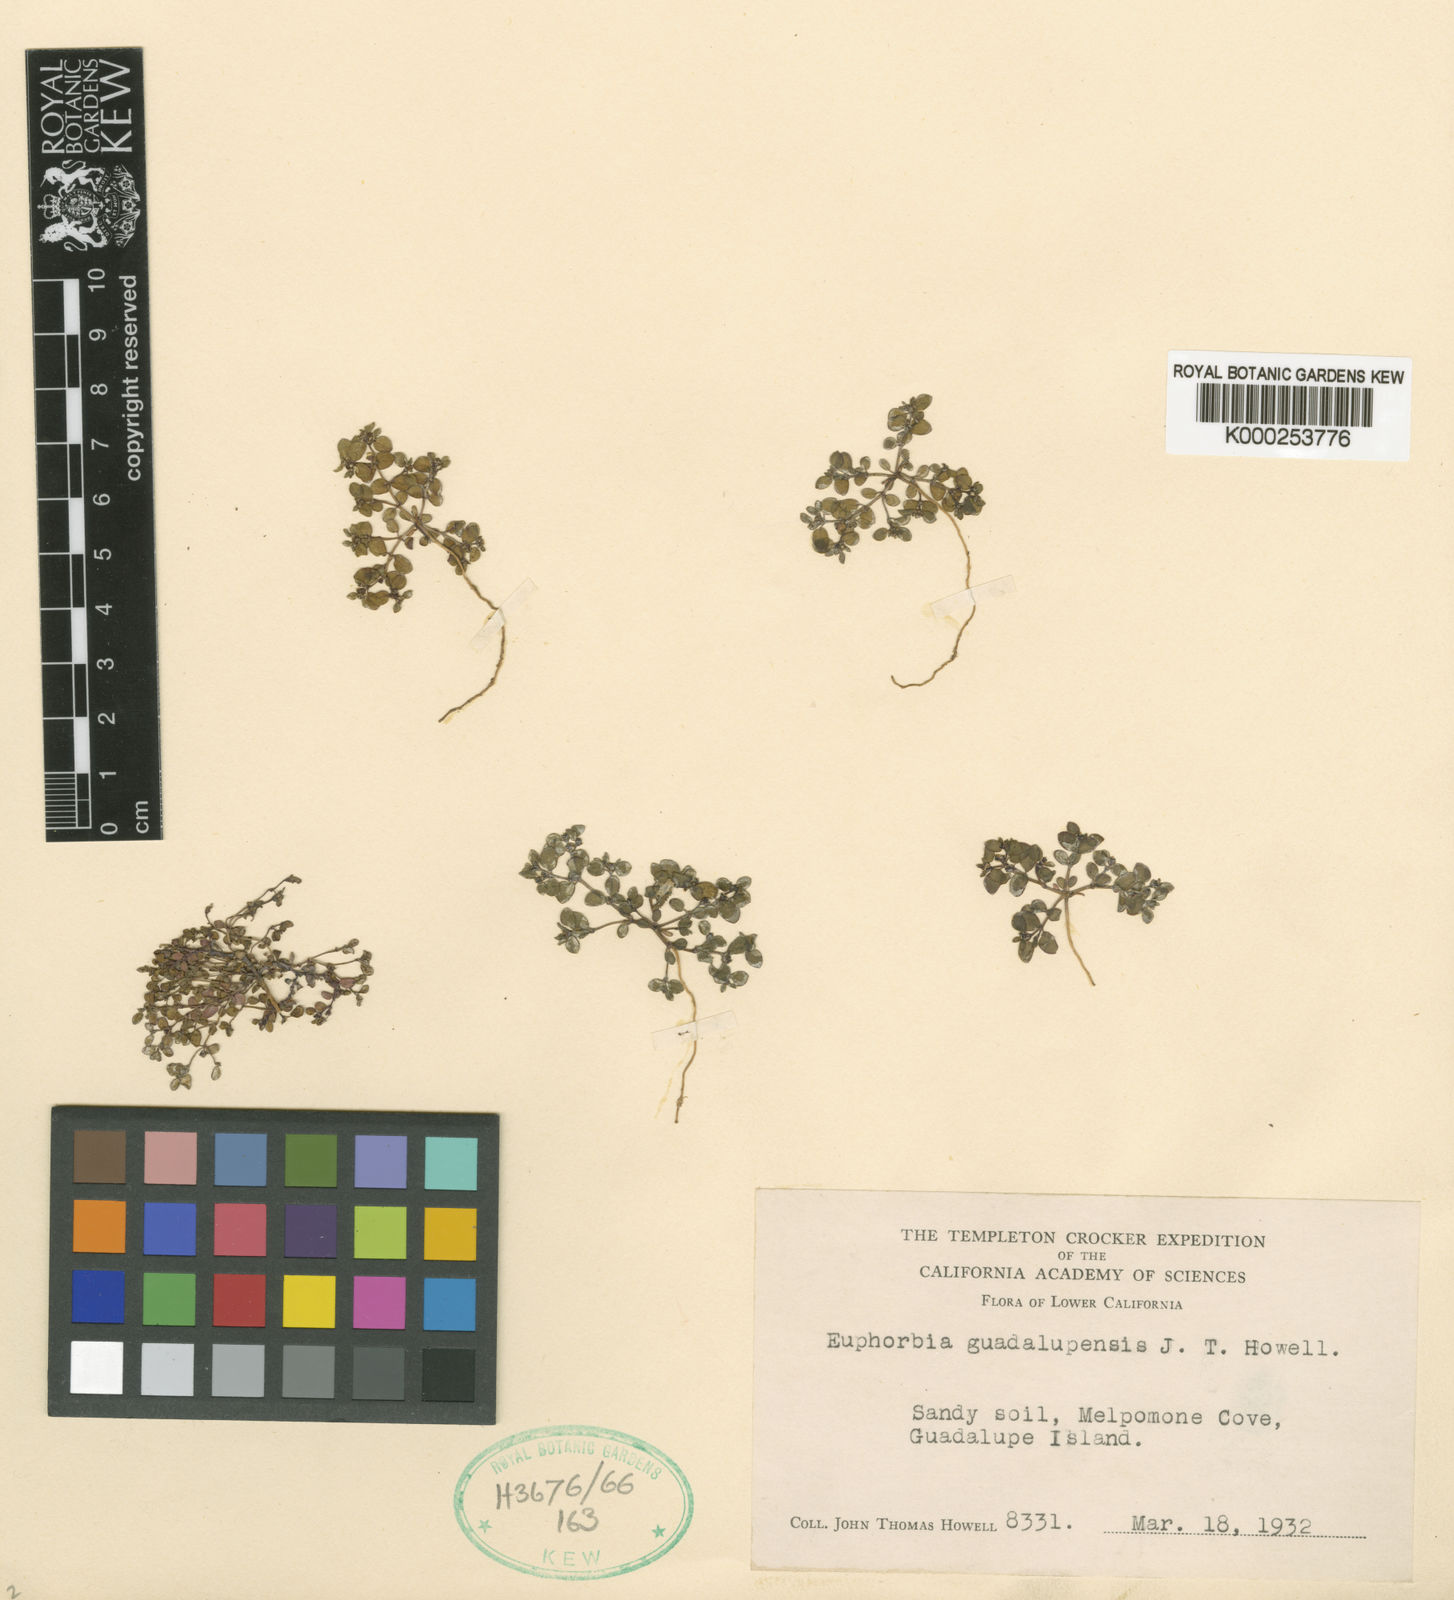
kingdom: Plantae
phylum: Tracheophyta
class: Magnoliopsida
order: Malpighiales
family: Euphorbiaceae
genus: Euphorbia
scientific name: Euphorbia pondii
